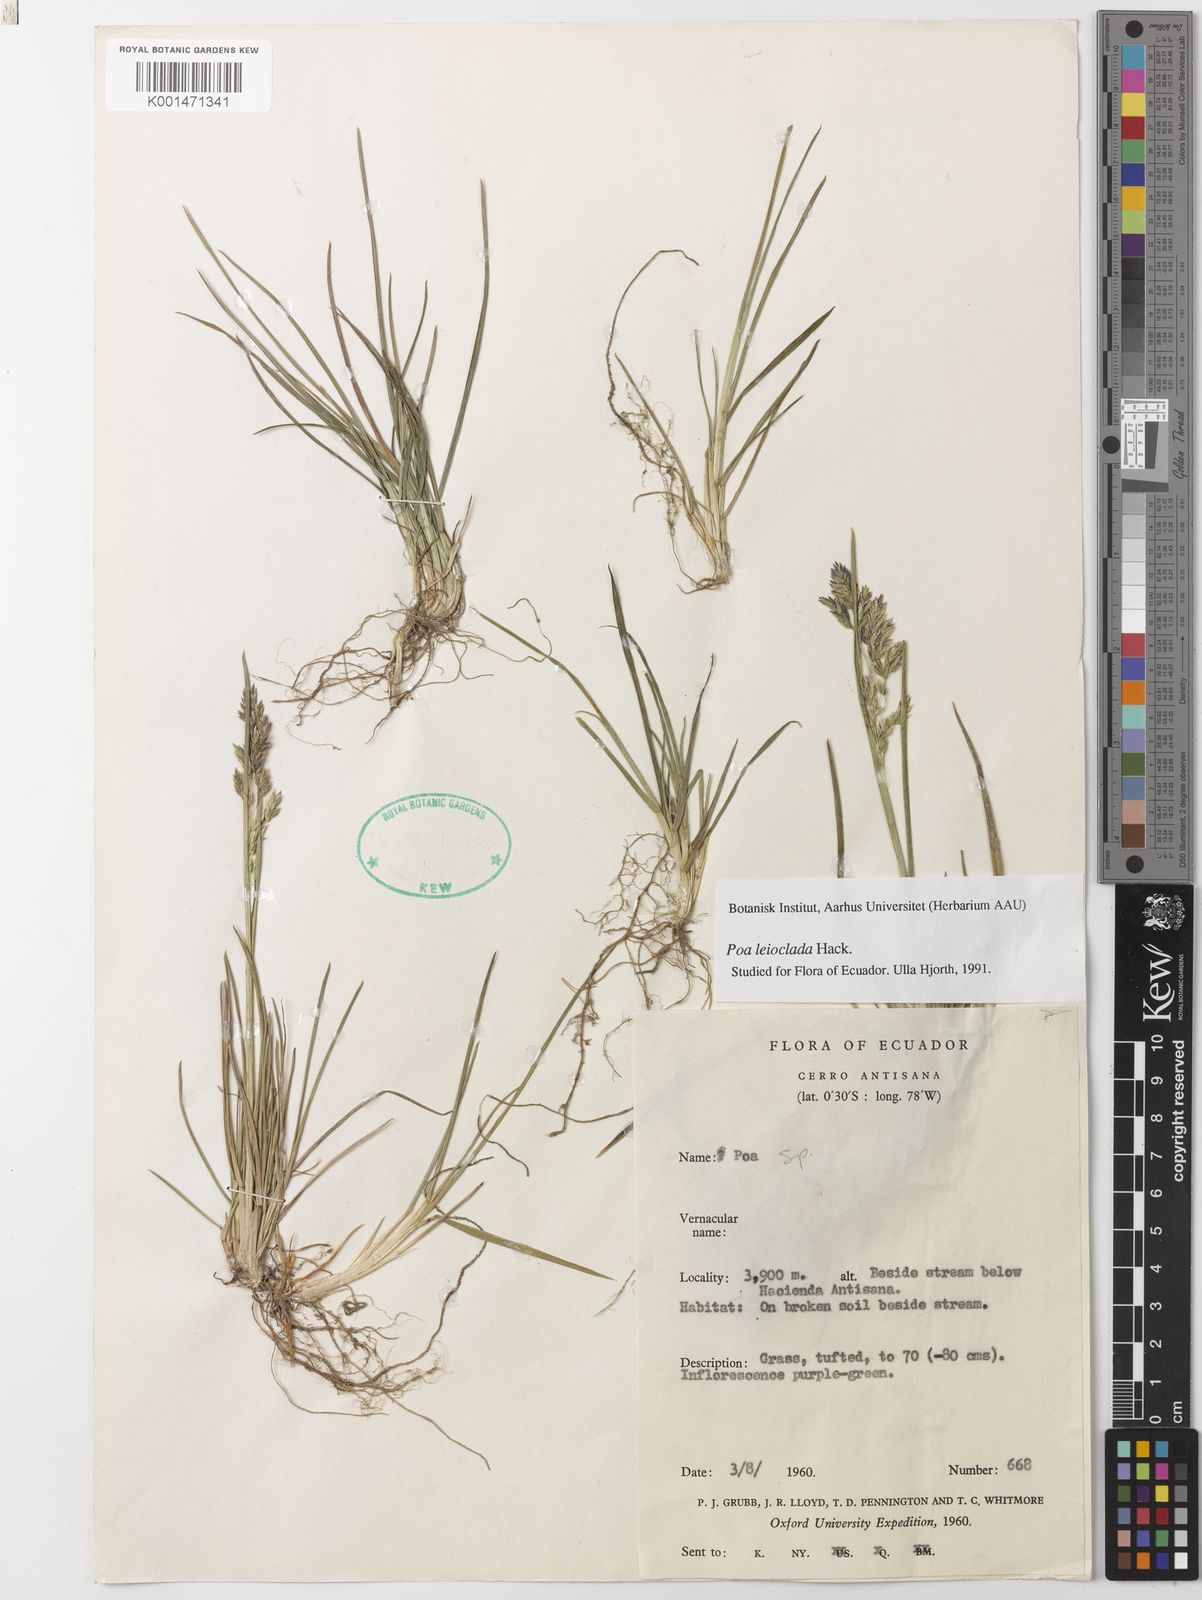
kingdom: Plantae
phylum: Tracheophyta
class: Liliopsida
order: Poales
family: Poaceae
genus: Poa
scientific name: Poa mulalensis
